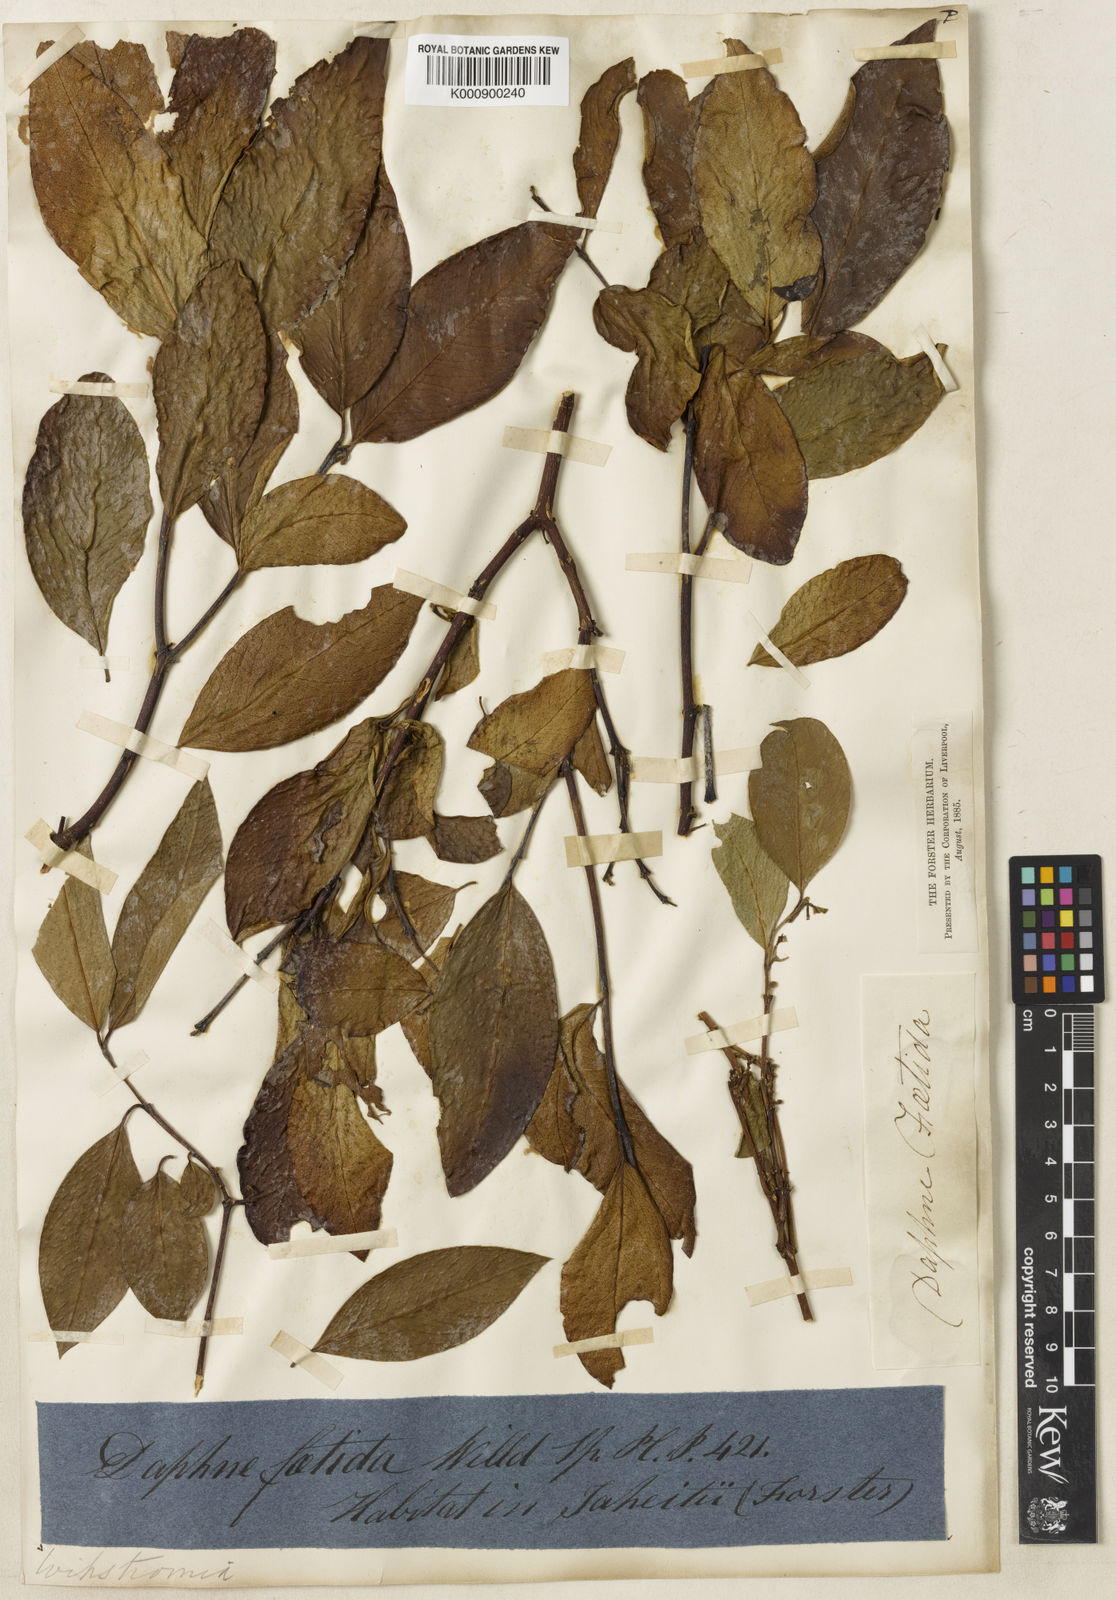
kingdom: Plantae
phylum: Tracheophyta
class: Magnoliopsida
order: Malvales
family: Thymelaeaceae
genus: Wikstroemia
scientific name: Wikstroemia
